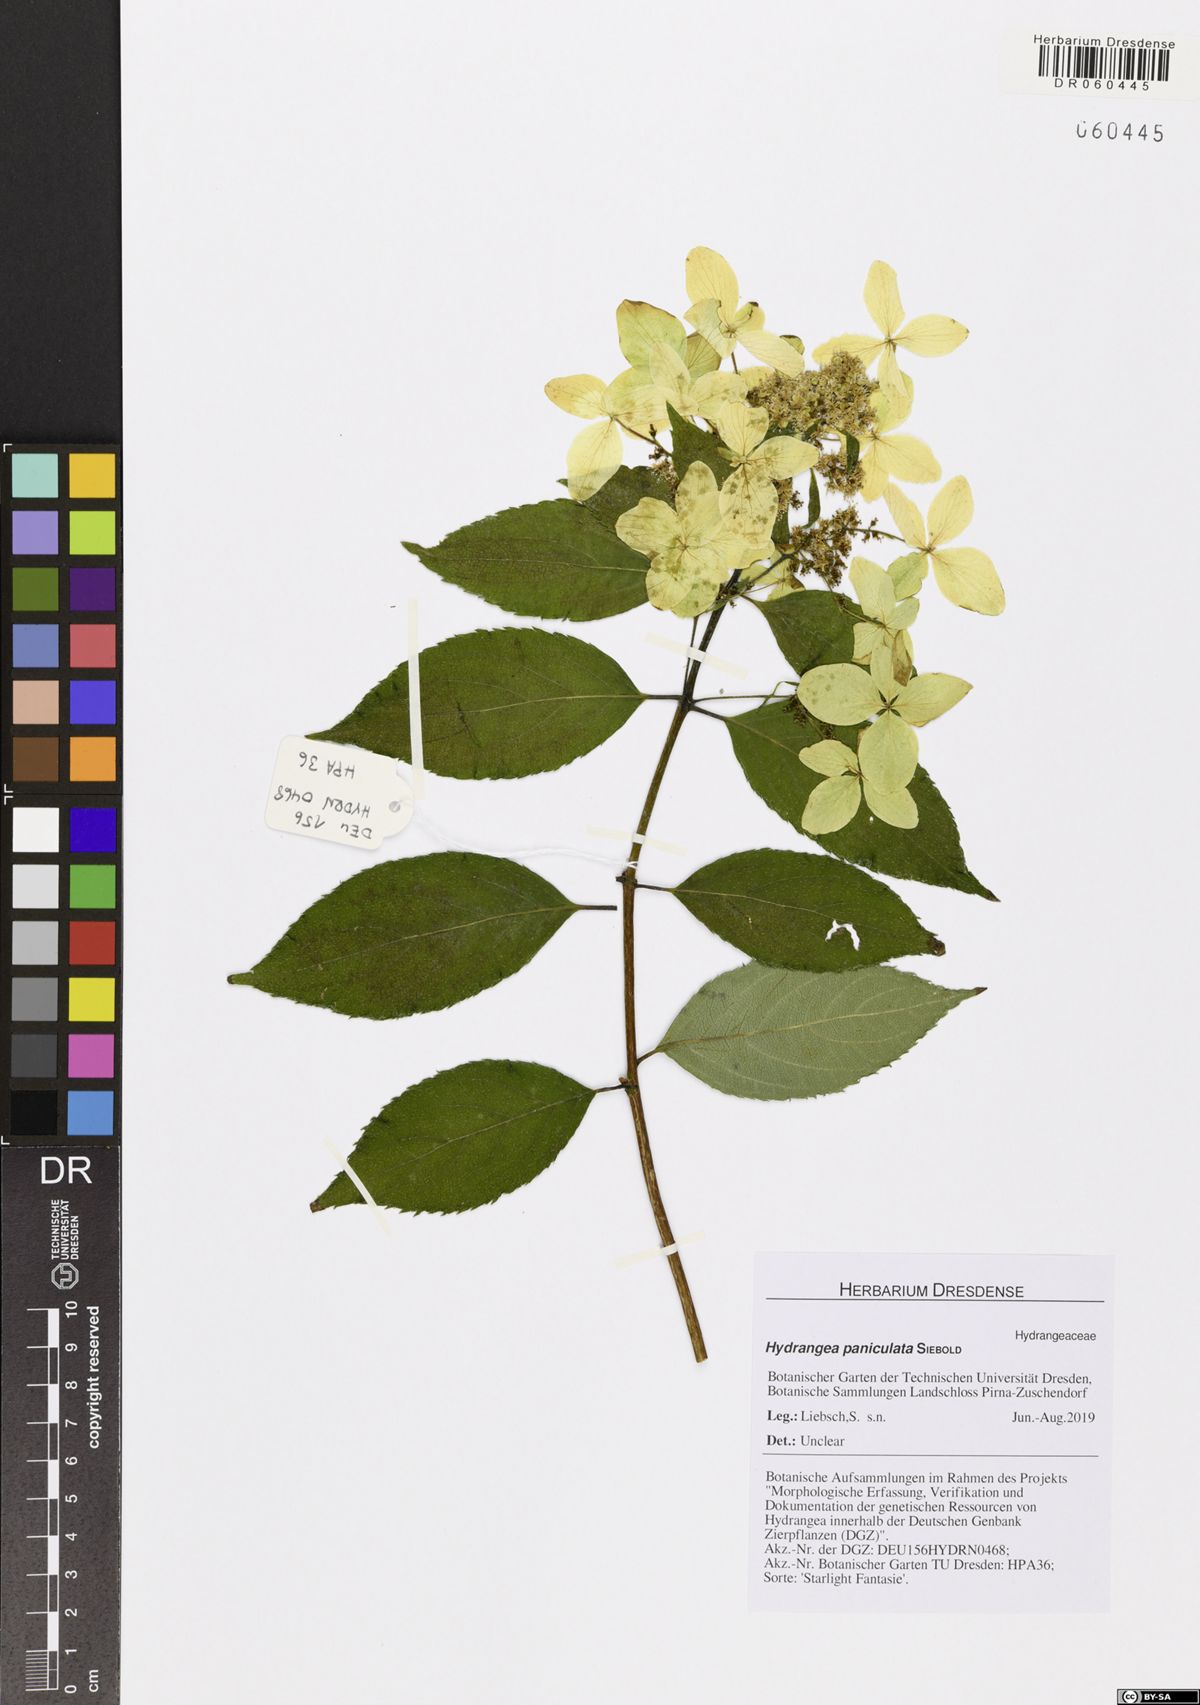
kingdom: Plantae
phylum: Tracheophyta
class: Magnoliopsida
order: Cornales
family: Hydrangeaceae
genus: Hydrangea
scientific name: Hydrangea paniculata
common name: Panicled hydrangea
